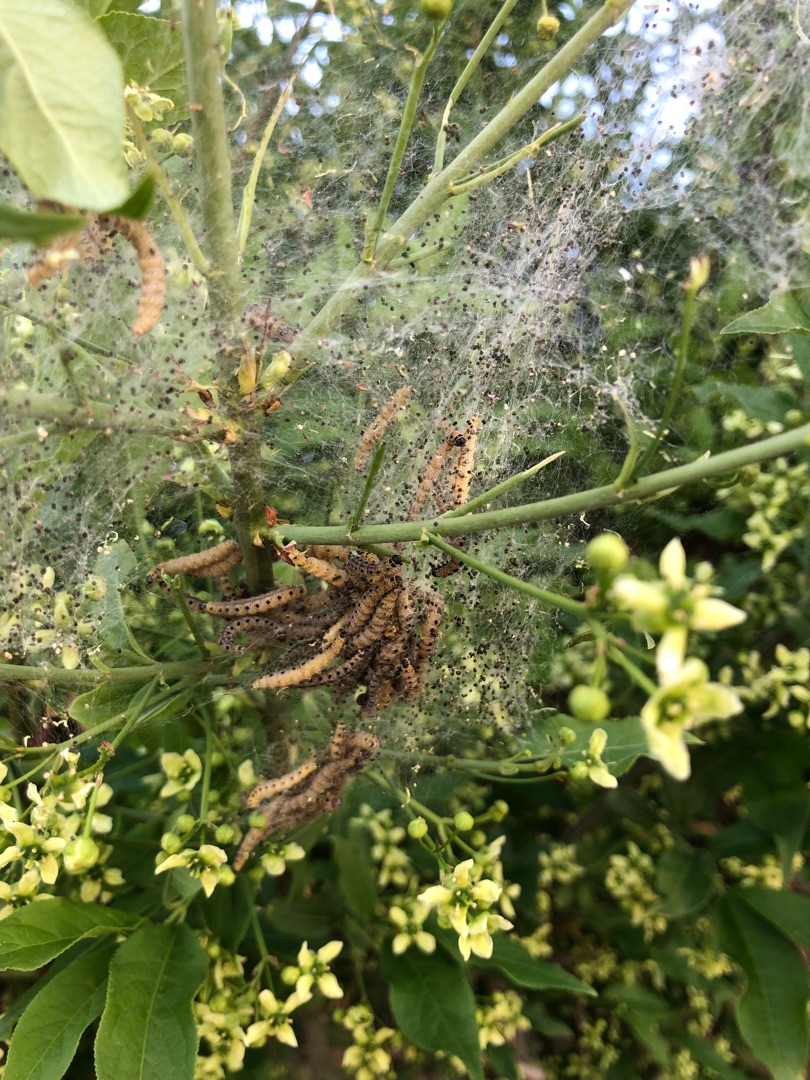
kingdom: Animalia
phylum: Arthropoda
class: Insecta
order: Lepidoptera
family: Yponomeutidae
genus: Yponomeuta
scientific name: Yponomeuta cagnagellus
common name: Benvedspindemøl
